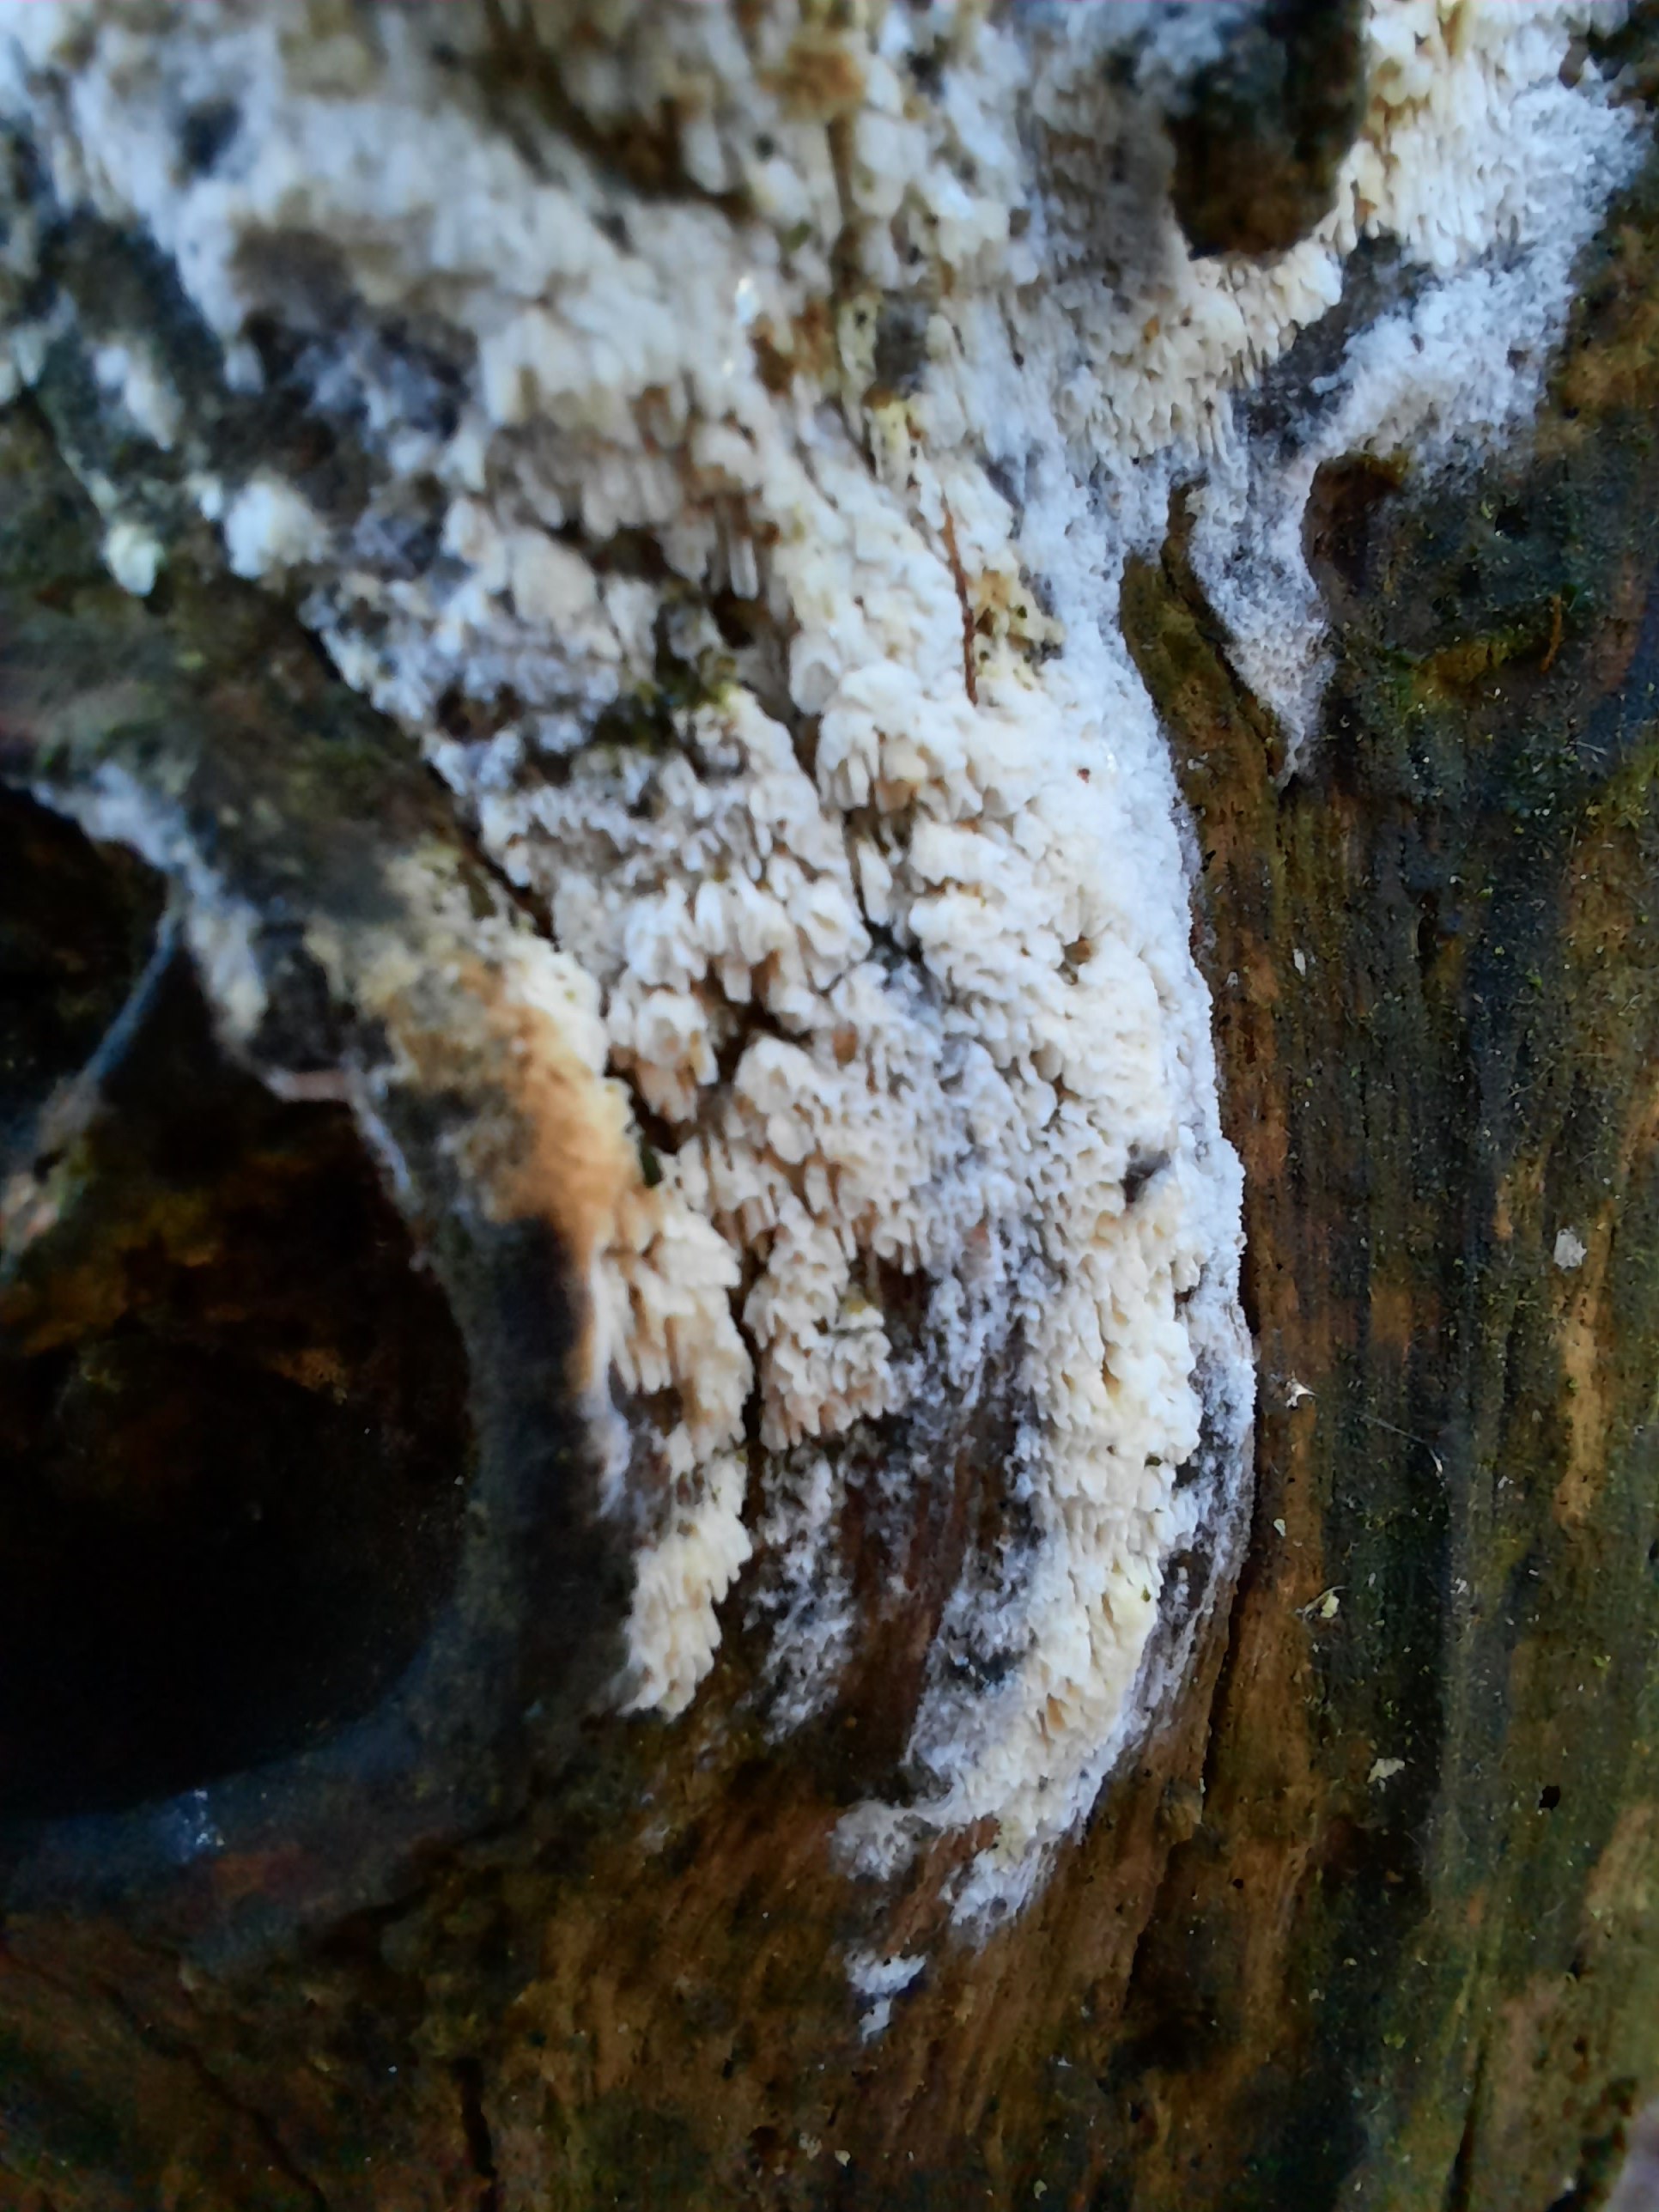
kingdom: Fungi
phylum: Basidiomycota
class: Agaricomycetes
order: Hymenochaetales
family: Schizoporaceae
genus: Schizopora
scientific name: Schizopora paradoxa
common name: hvid tandsvamp
